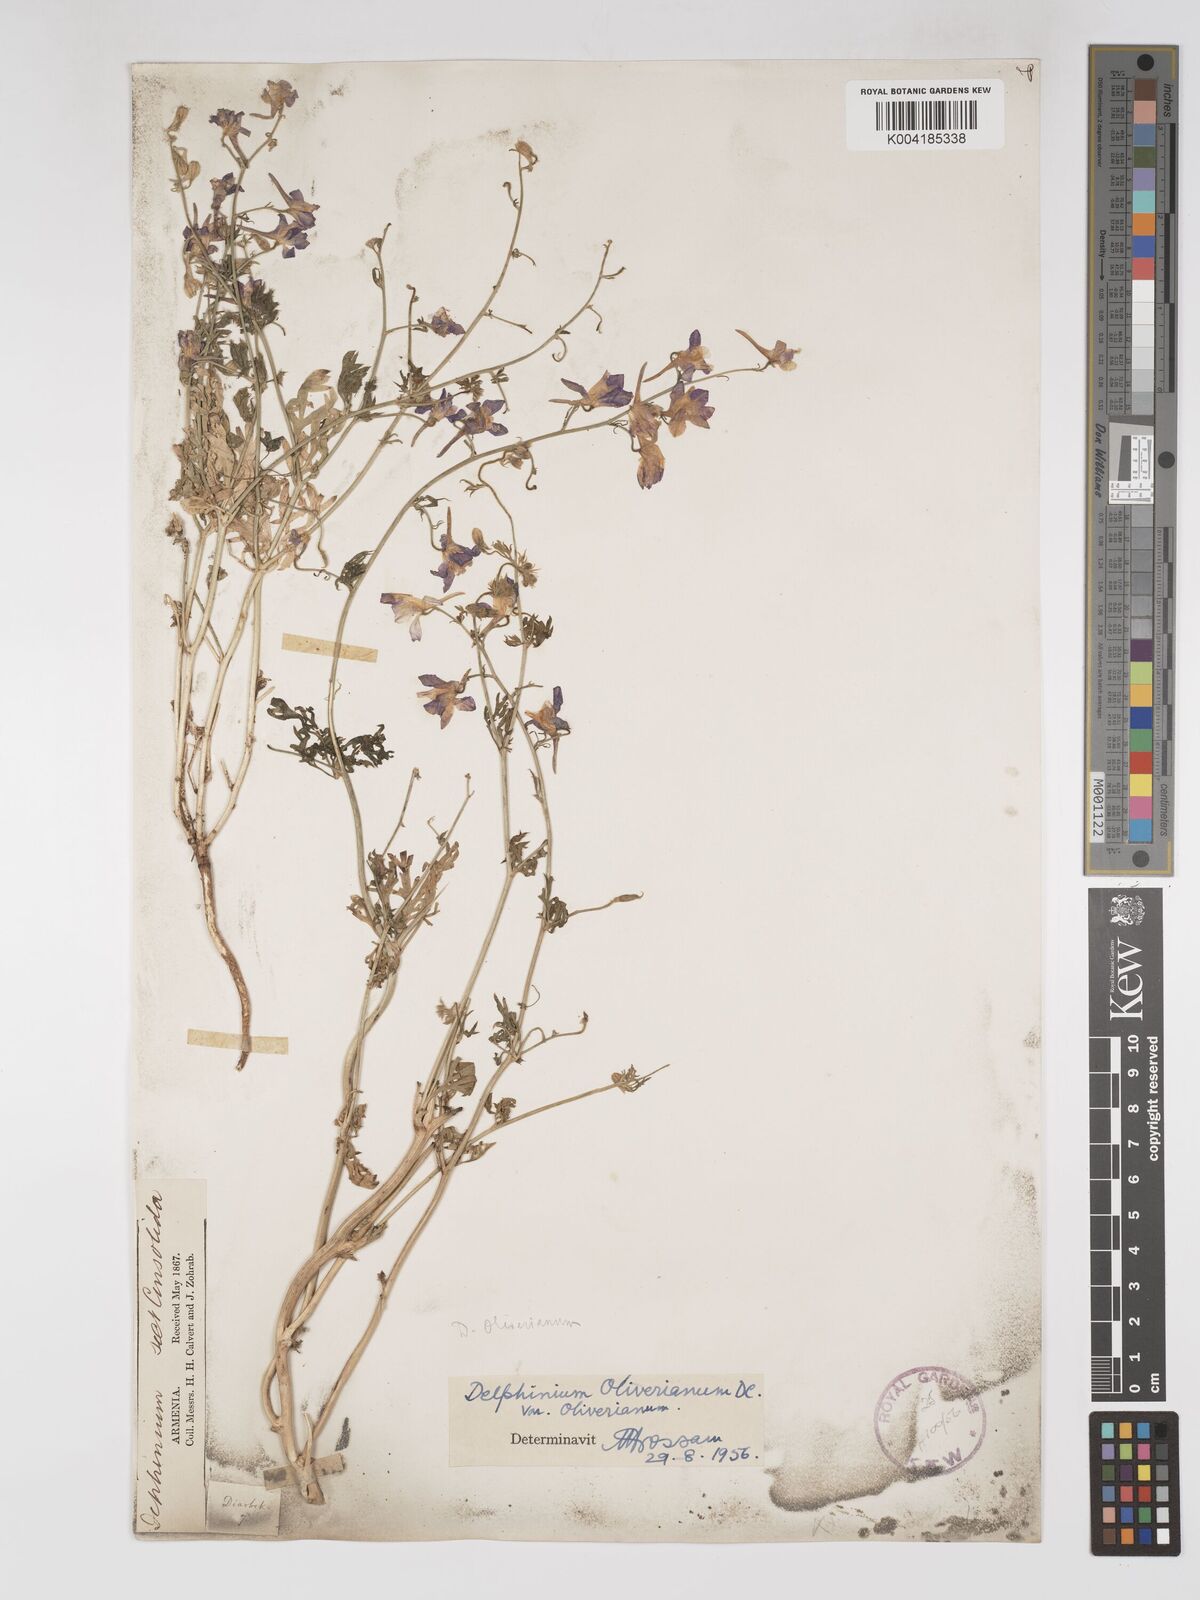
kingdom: Plantae
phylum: Tracheophyta
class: Magnoliopsida
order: Ranunculales
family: Ranunculaceae
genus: Delphinium
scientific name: Delphinium oliverianum
